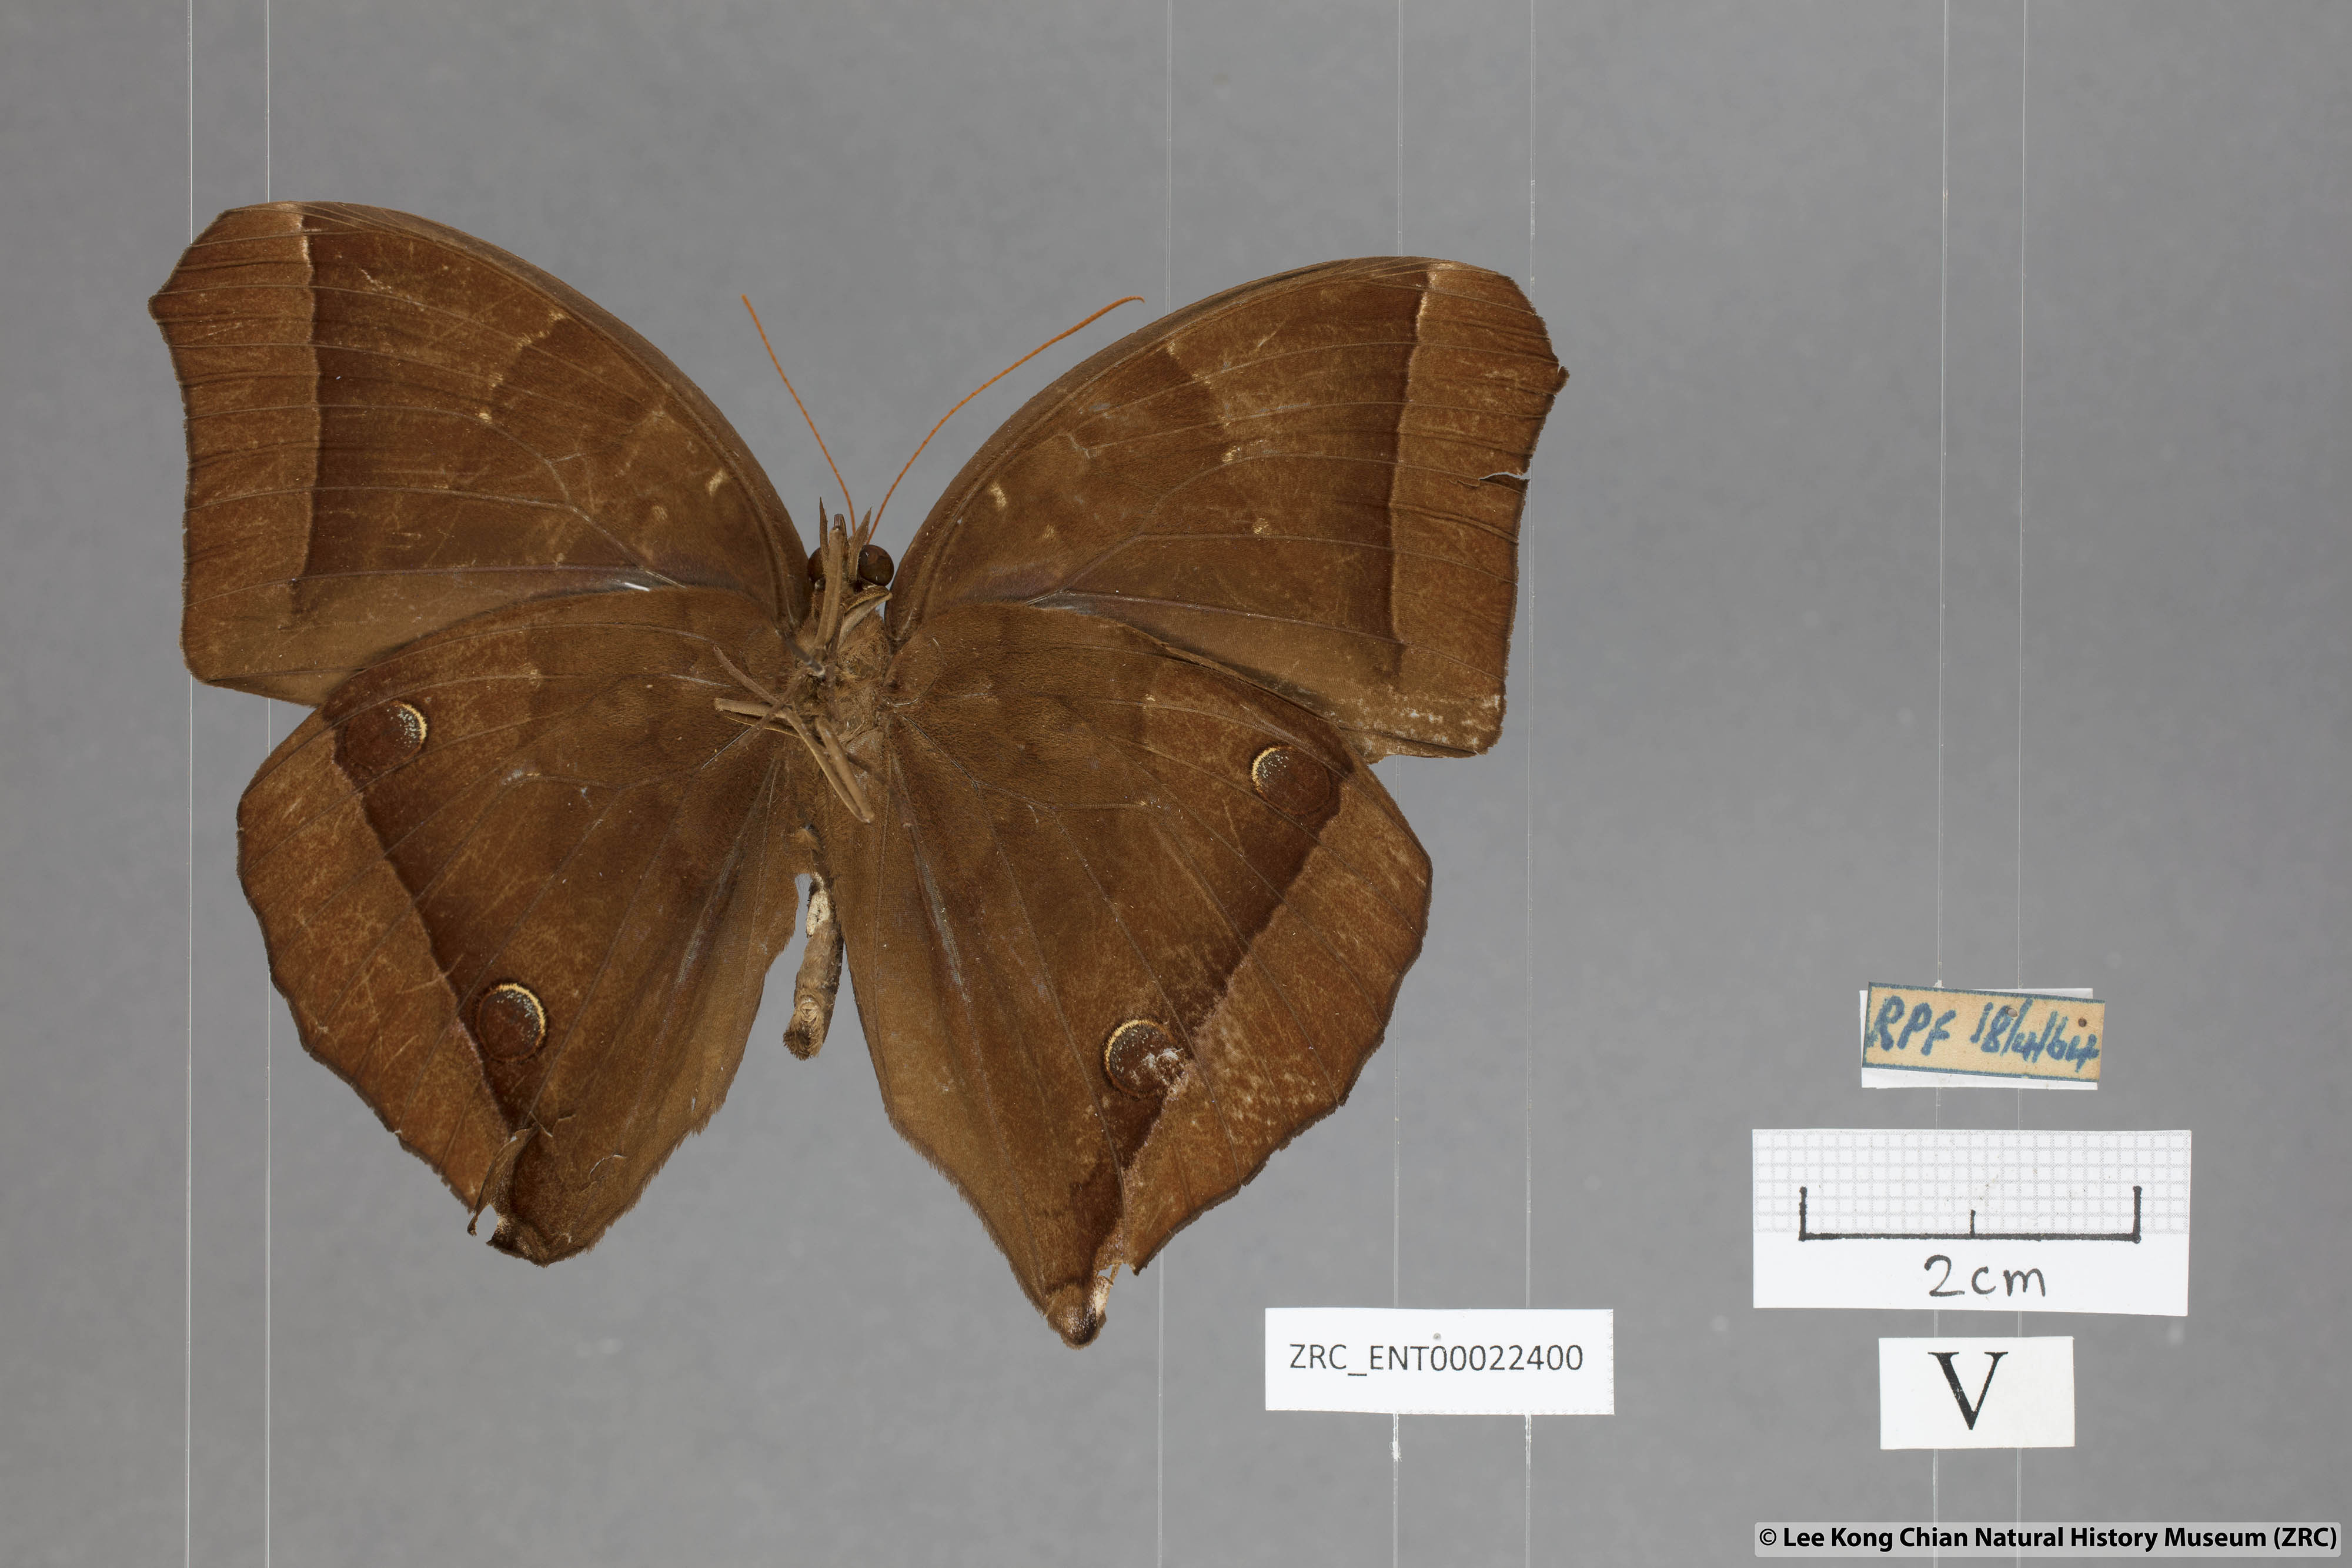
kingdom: Animalia
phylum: Arthropoda
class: Insecta
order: Lepidoptera
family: Nymphalidae
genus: Thaumantis
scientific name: Thaumantis noureddin
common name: Dark jungle glory
